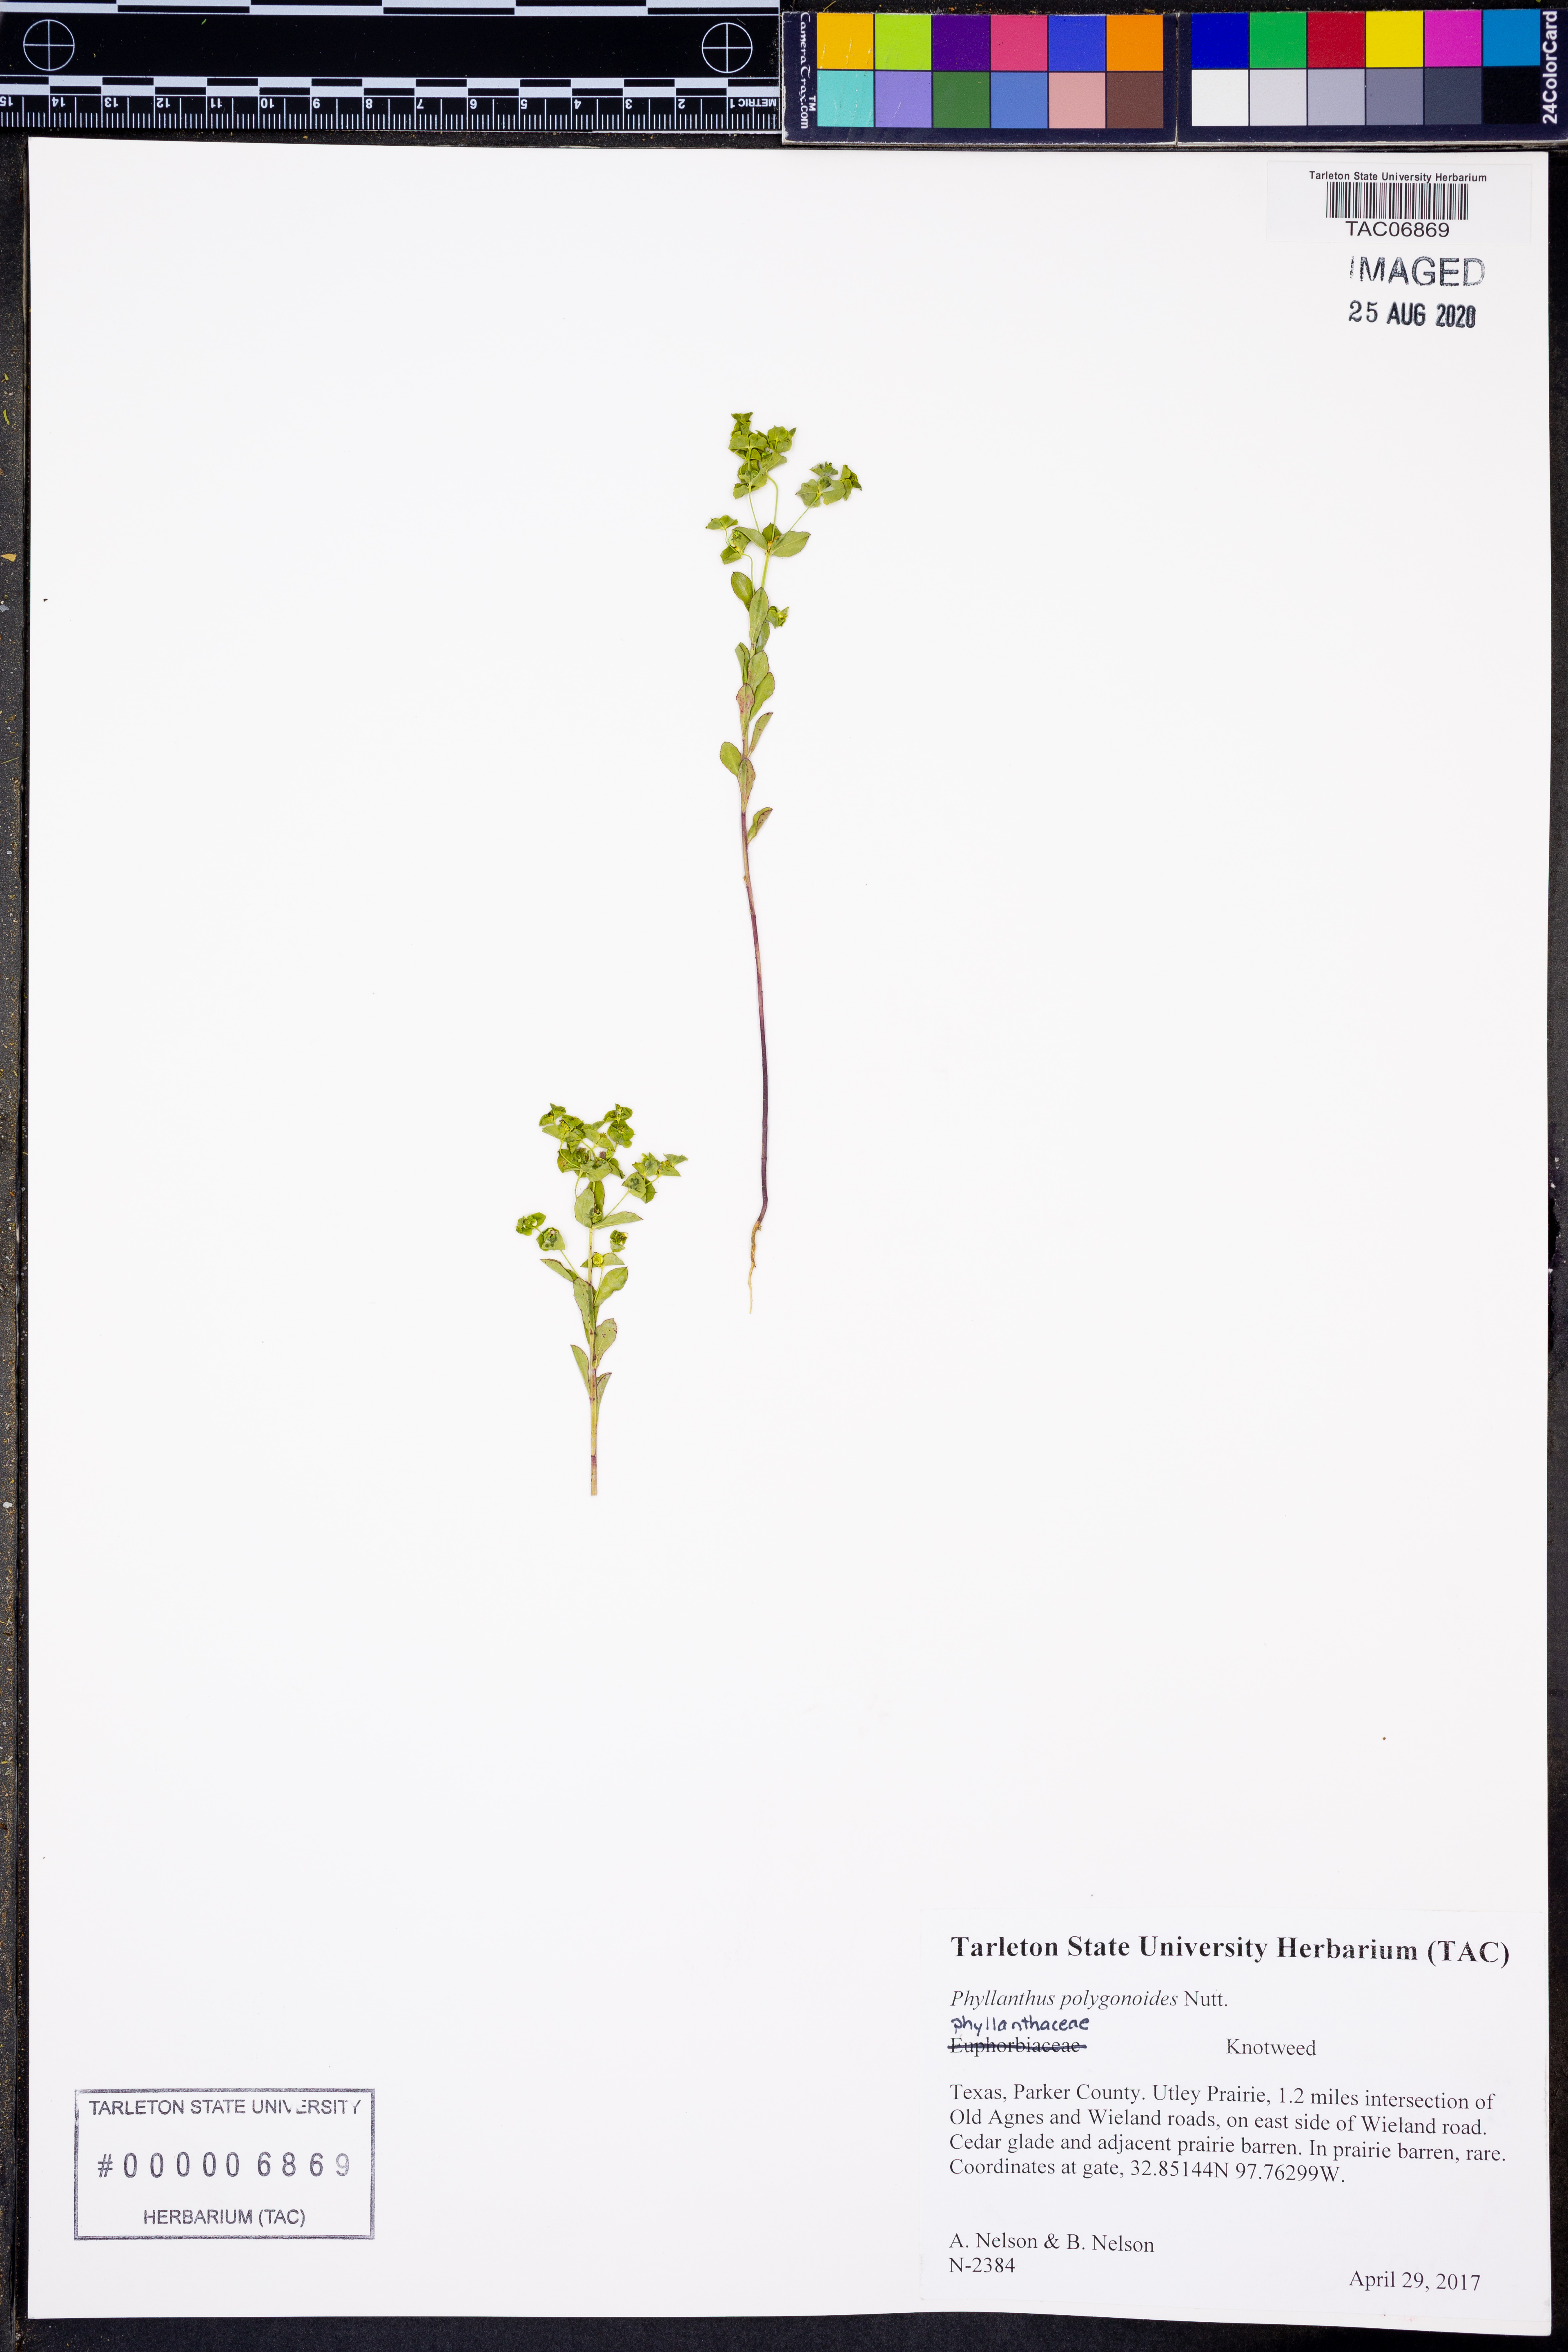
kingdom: Plantae
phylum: Tracheophyta
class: Magnoliopsida
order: Malpighiales
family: Phyllanthaceae
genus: Phyllanthus
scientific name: Phyllanthus polygonoides
